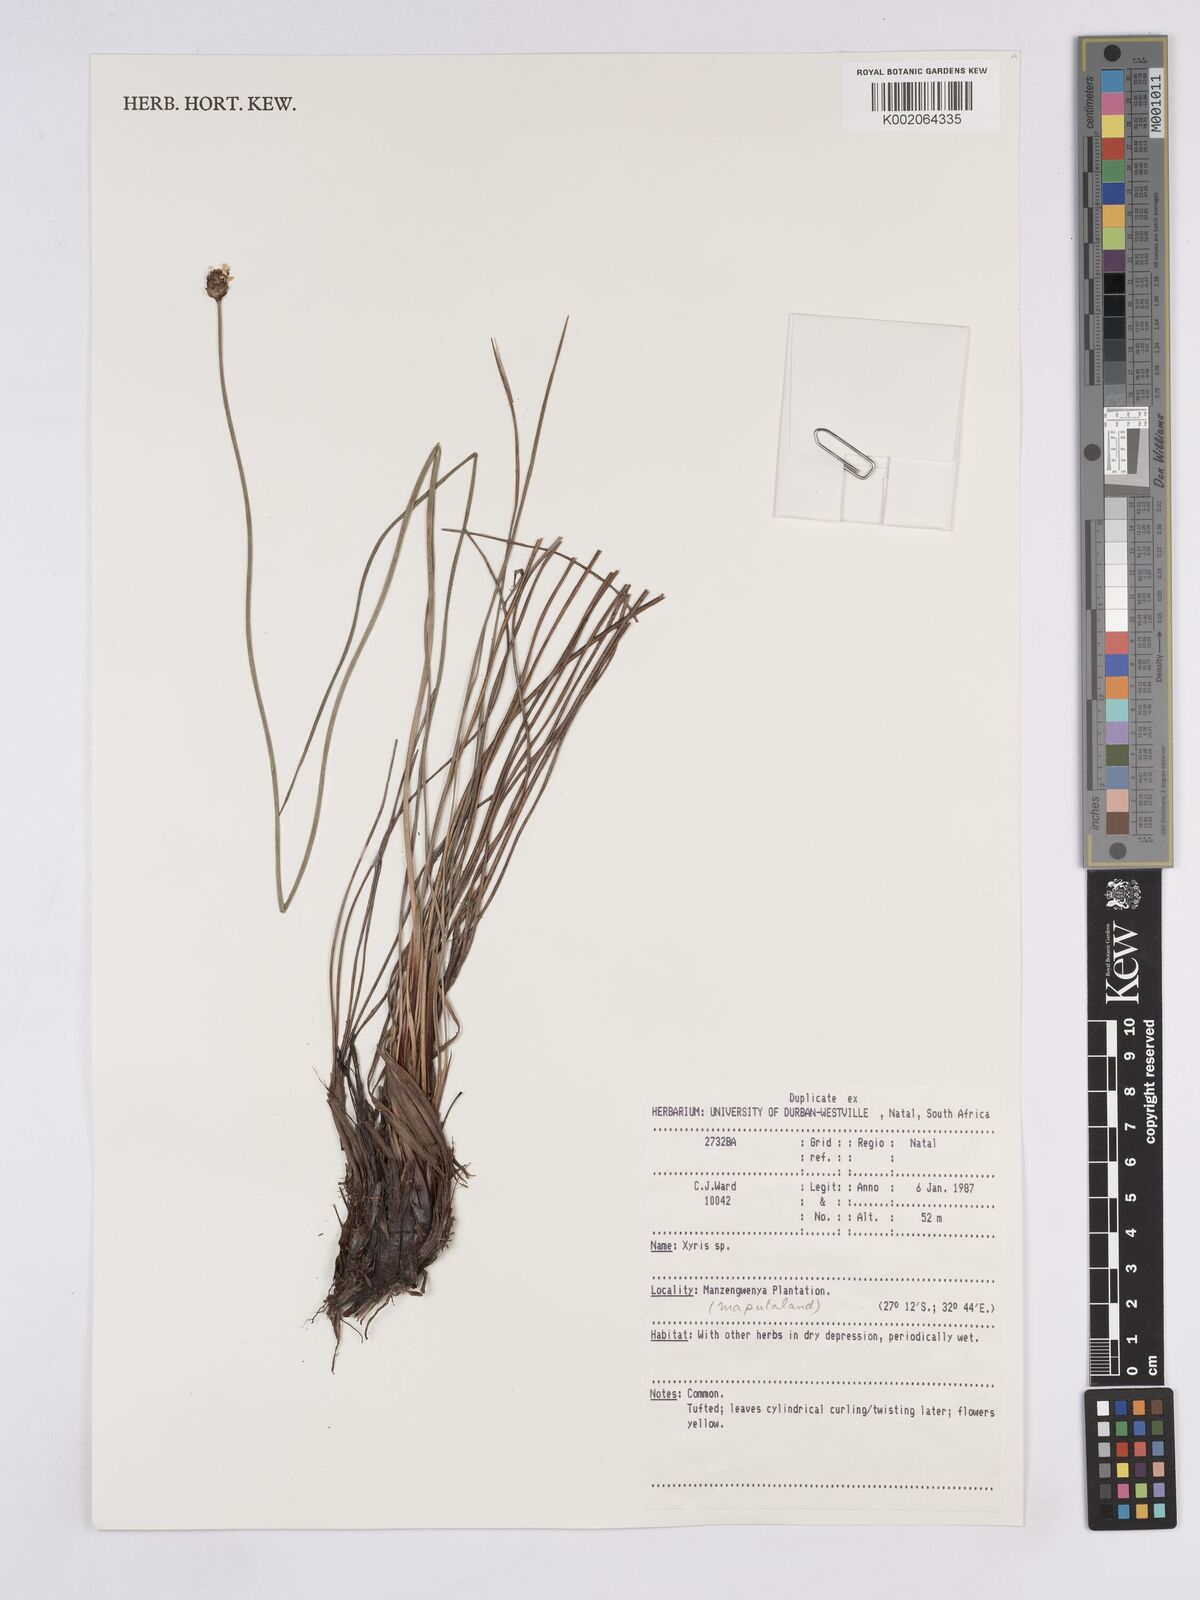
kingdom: Plantae
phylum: Tracheophyta
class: Liliopsida
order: Poales
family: Xyridaceae
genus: Xyris
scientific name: Xyris
